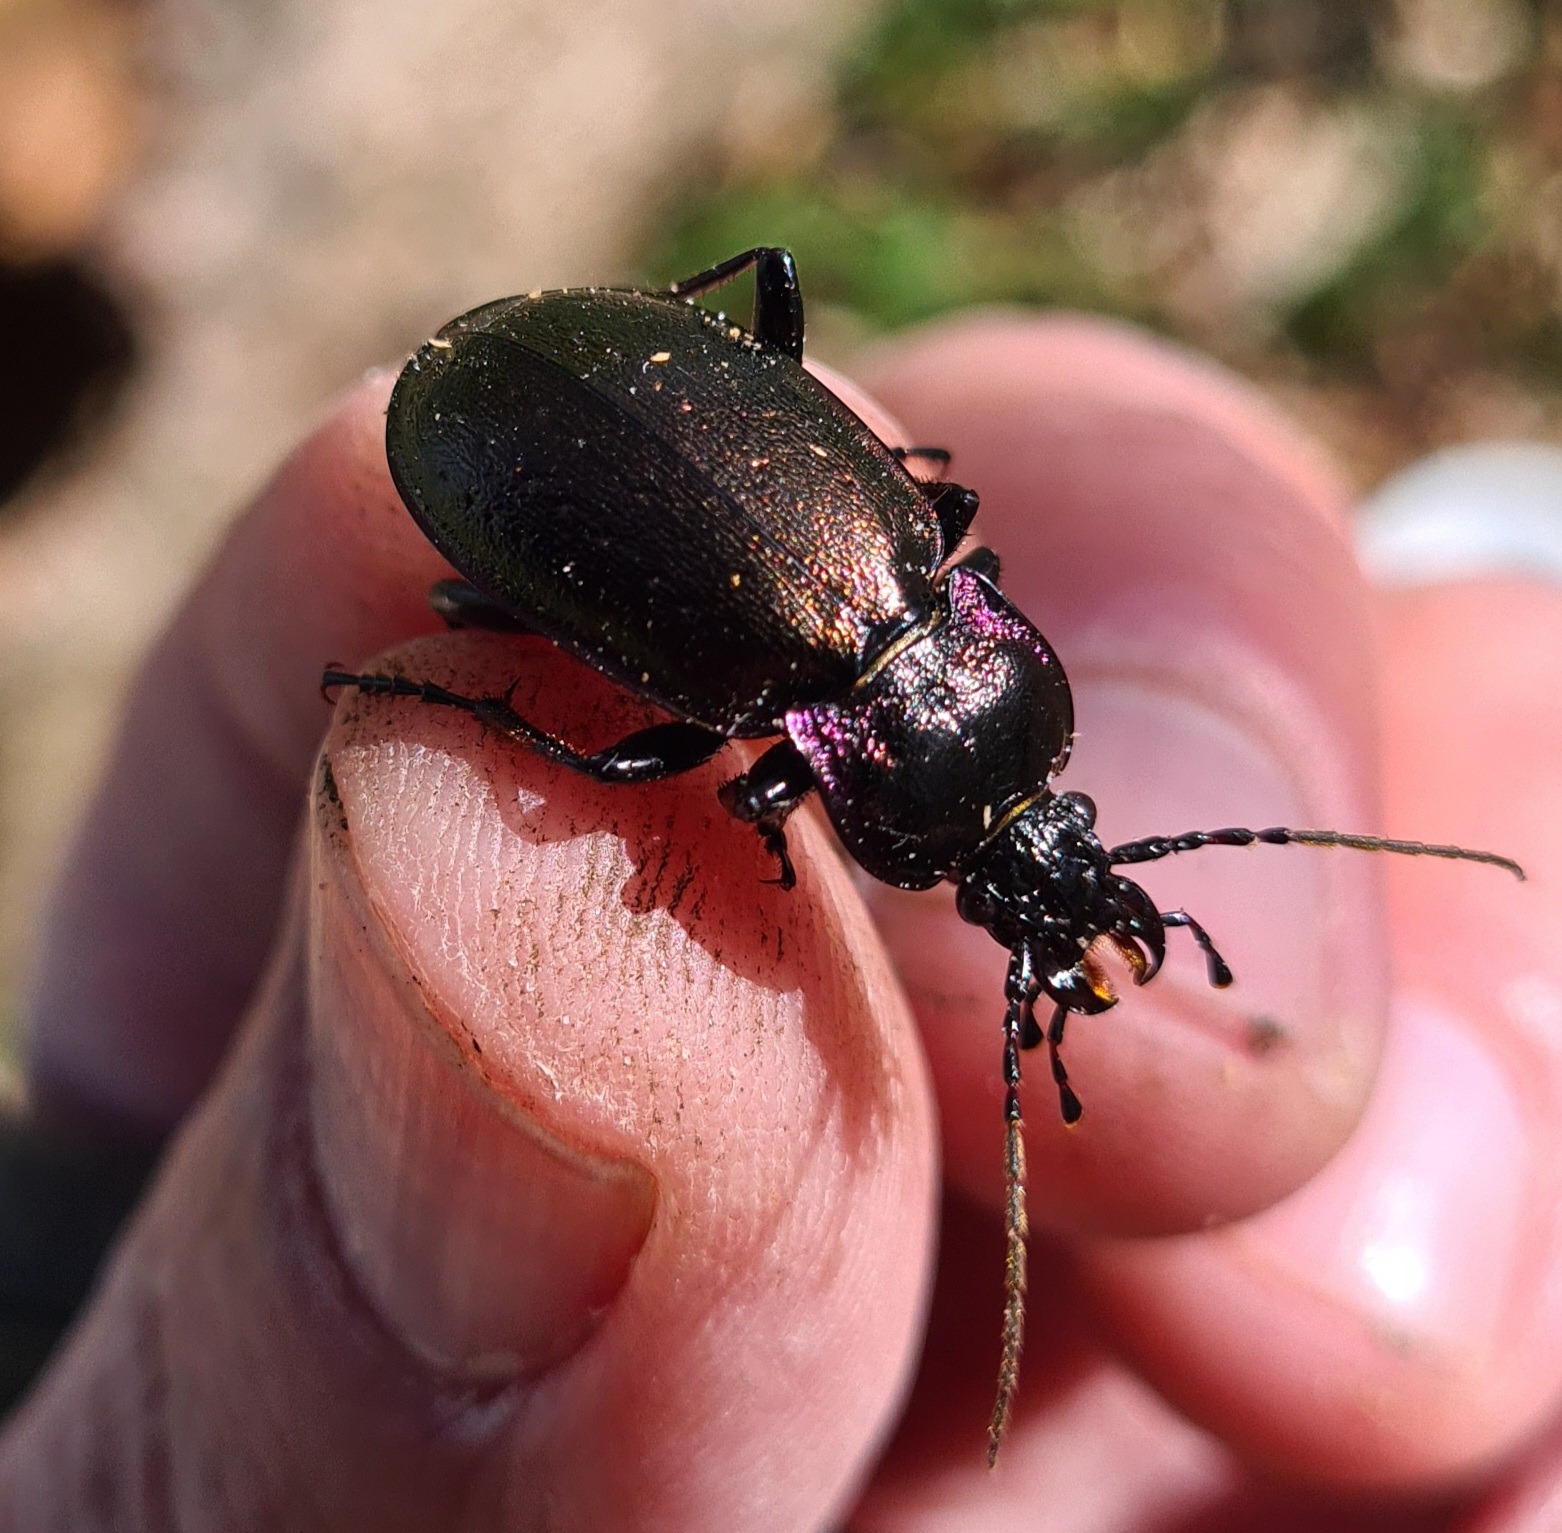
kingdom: Animalia
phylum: Arthropoda
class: Insecta
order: Coleoptera
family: Carabidae
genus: Carabus
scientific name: Carabus nemoralis
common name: Kratløber
